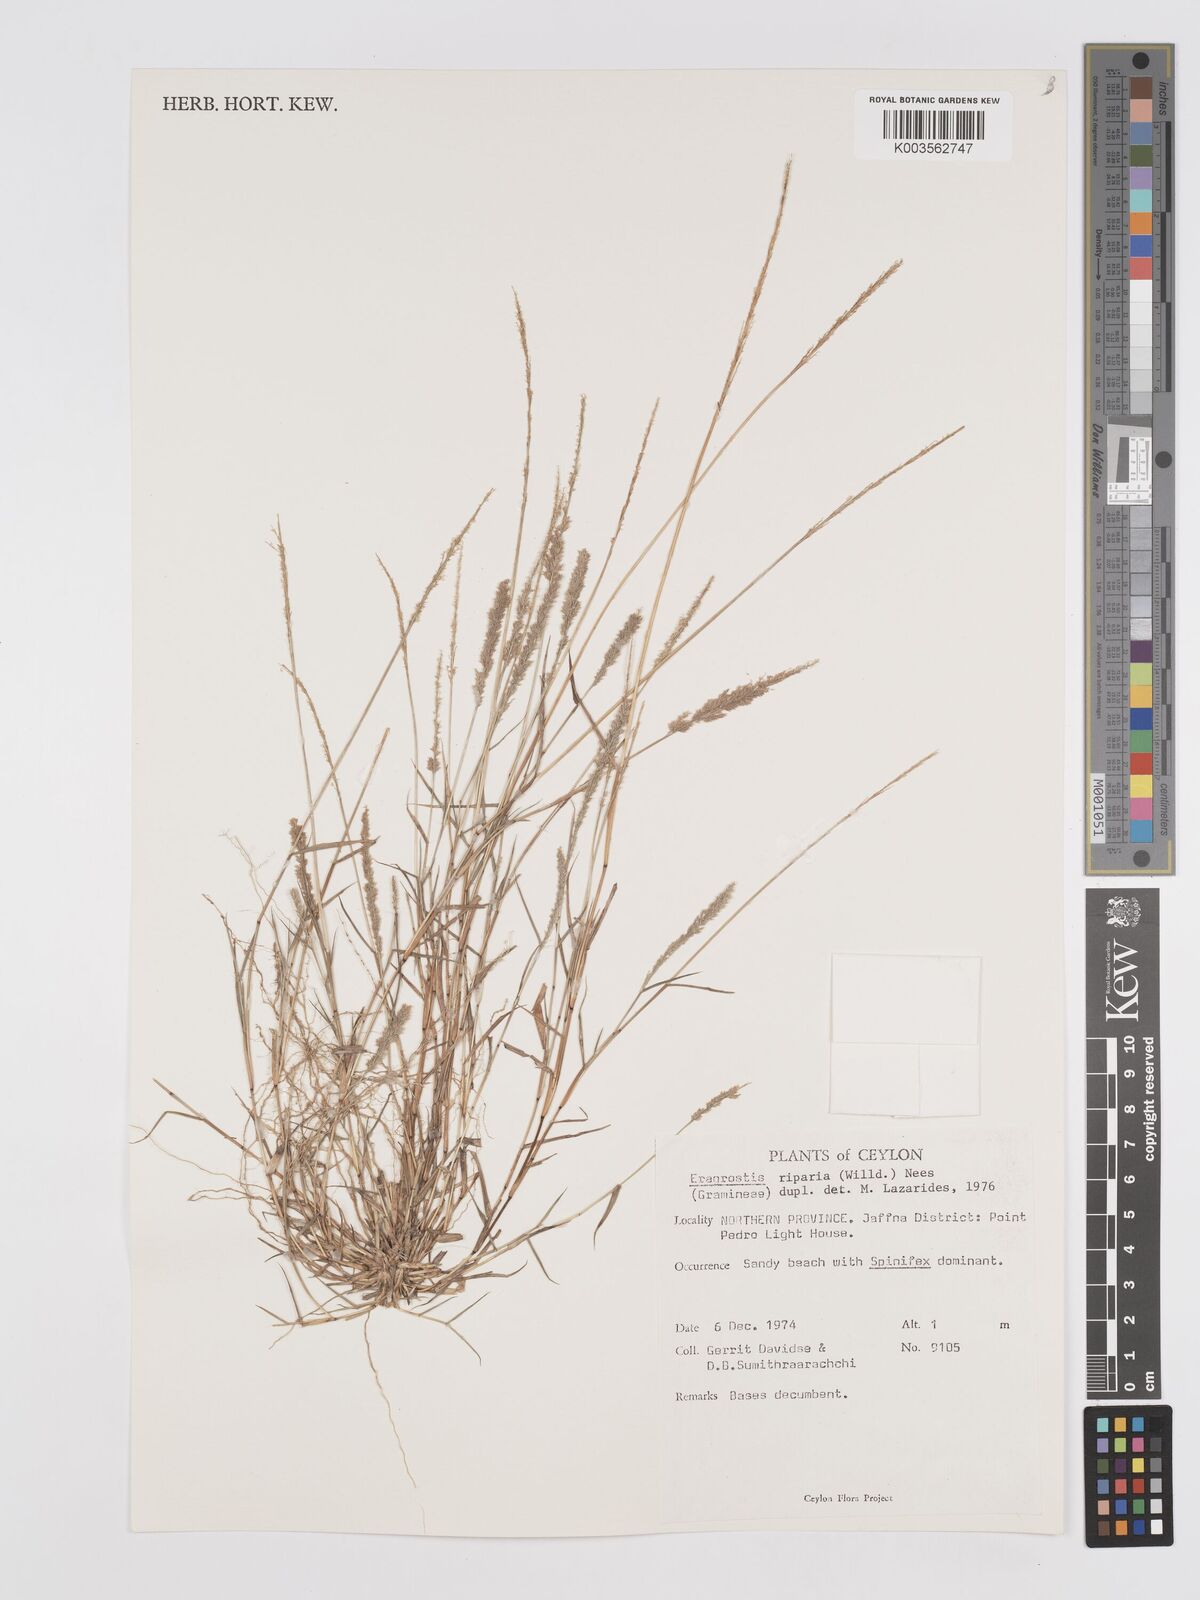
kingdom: Plantae
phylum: Tracheophyta
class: Liliopsida
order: Poales
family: Poaceae
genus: Eragrostis
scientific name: Eragrostis riparia
